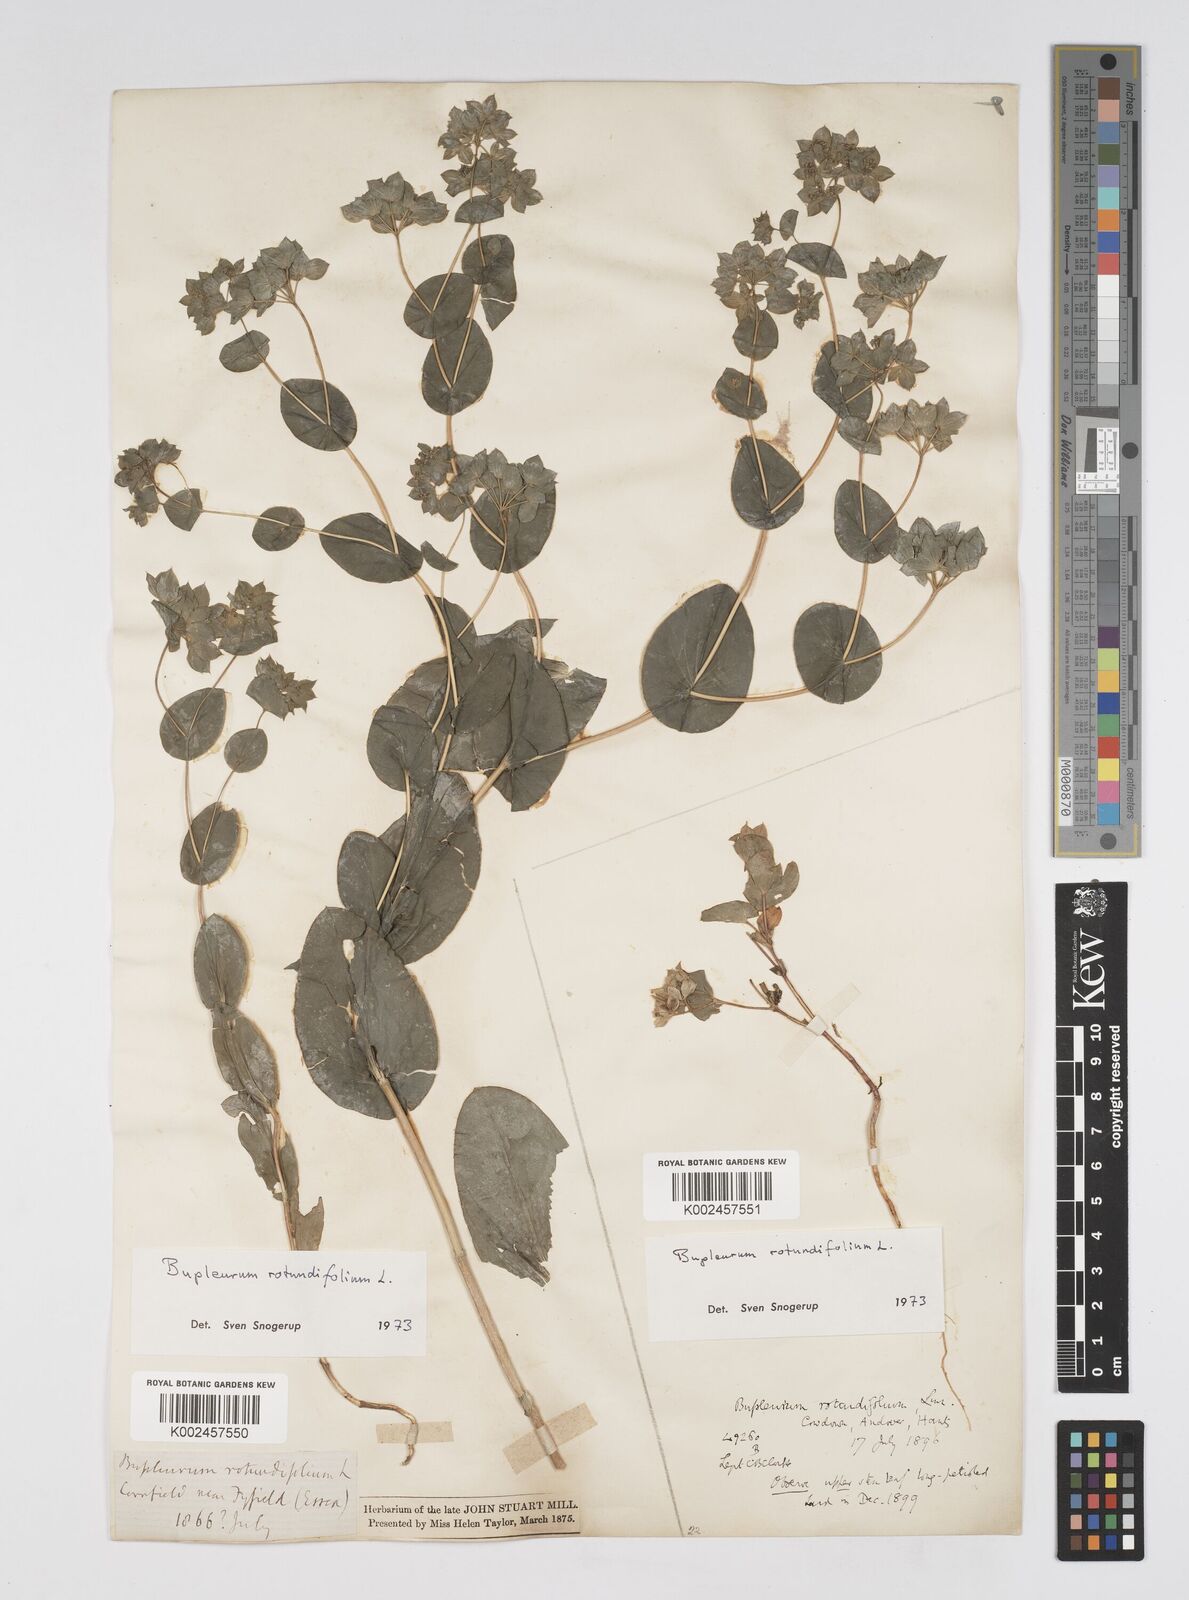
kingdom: Plantae
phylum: Tracheophyta
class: Magnoliopsida
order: Apiales
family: Apiaceae
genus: Bupleurum
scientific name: Bupleurum rotundifolium
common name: Thorow-wax
